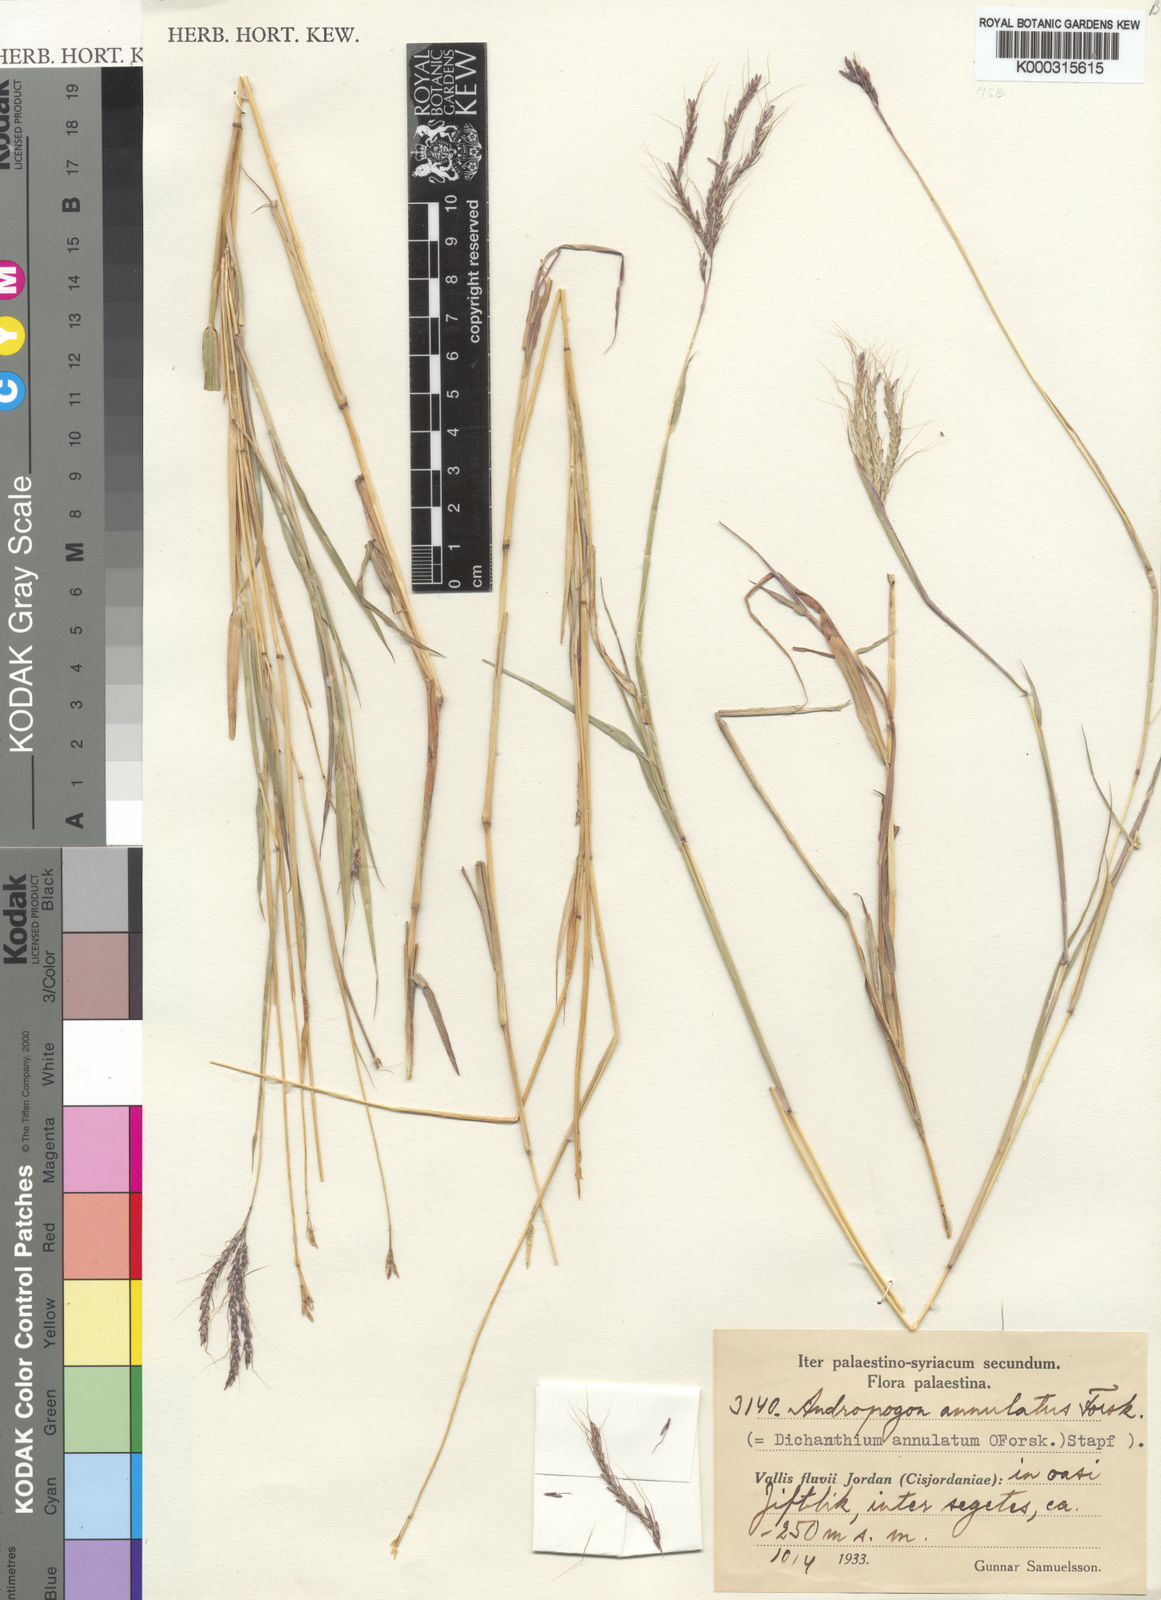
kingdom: Plantae
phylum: Tracheophyta
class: Liliopsida
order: Poales
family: Poaceae
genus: Dichanthium
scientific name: Dichanthium annulatum
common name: Kleberg's bluestem
